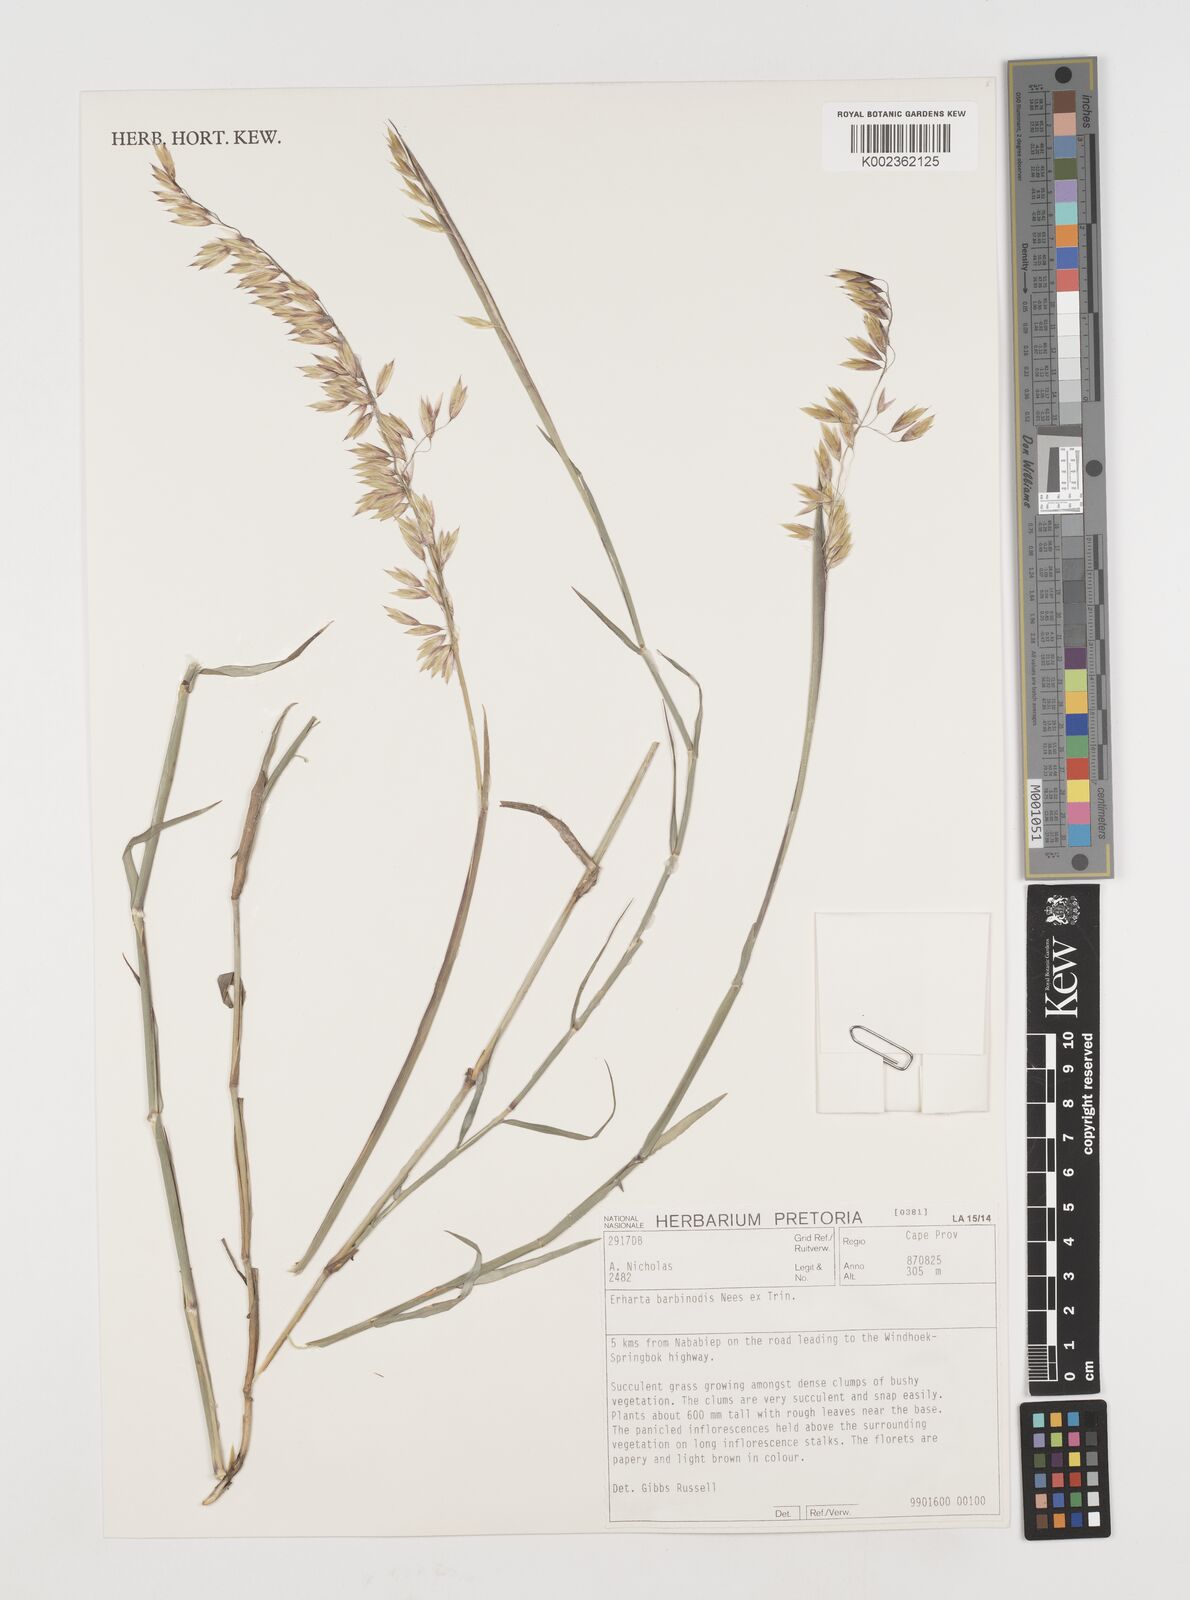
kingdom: Plantae
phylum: Tracheophyta
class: Liliopsida
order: Poales
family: Poaceae
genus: Ehrharta
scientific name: Ehrharta barbinodis
